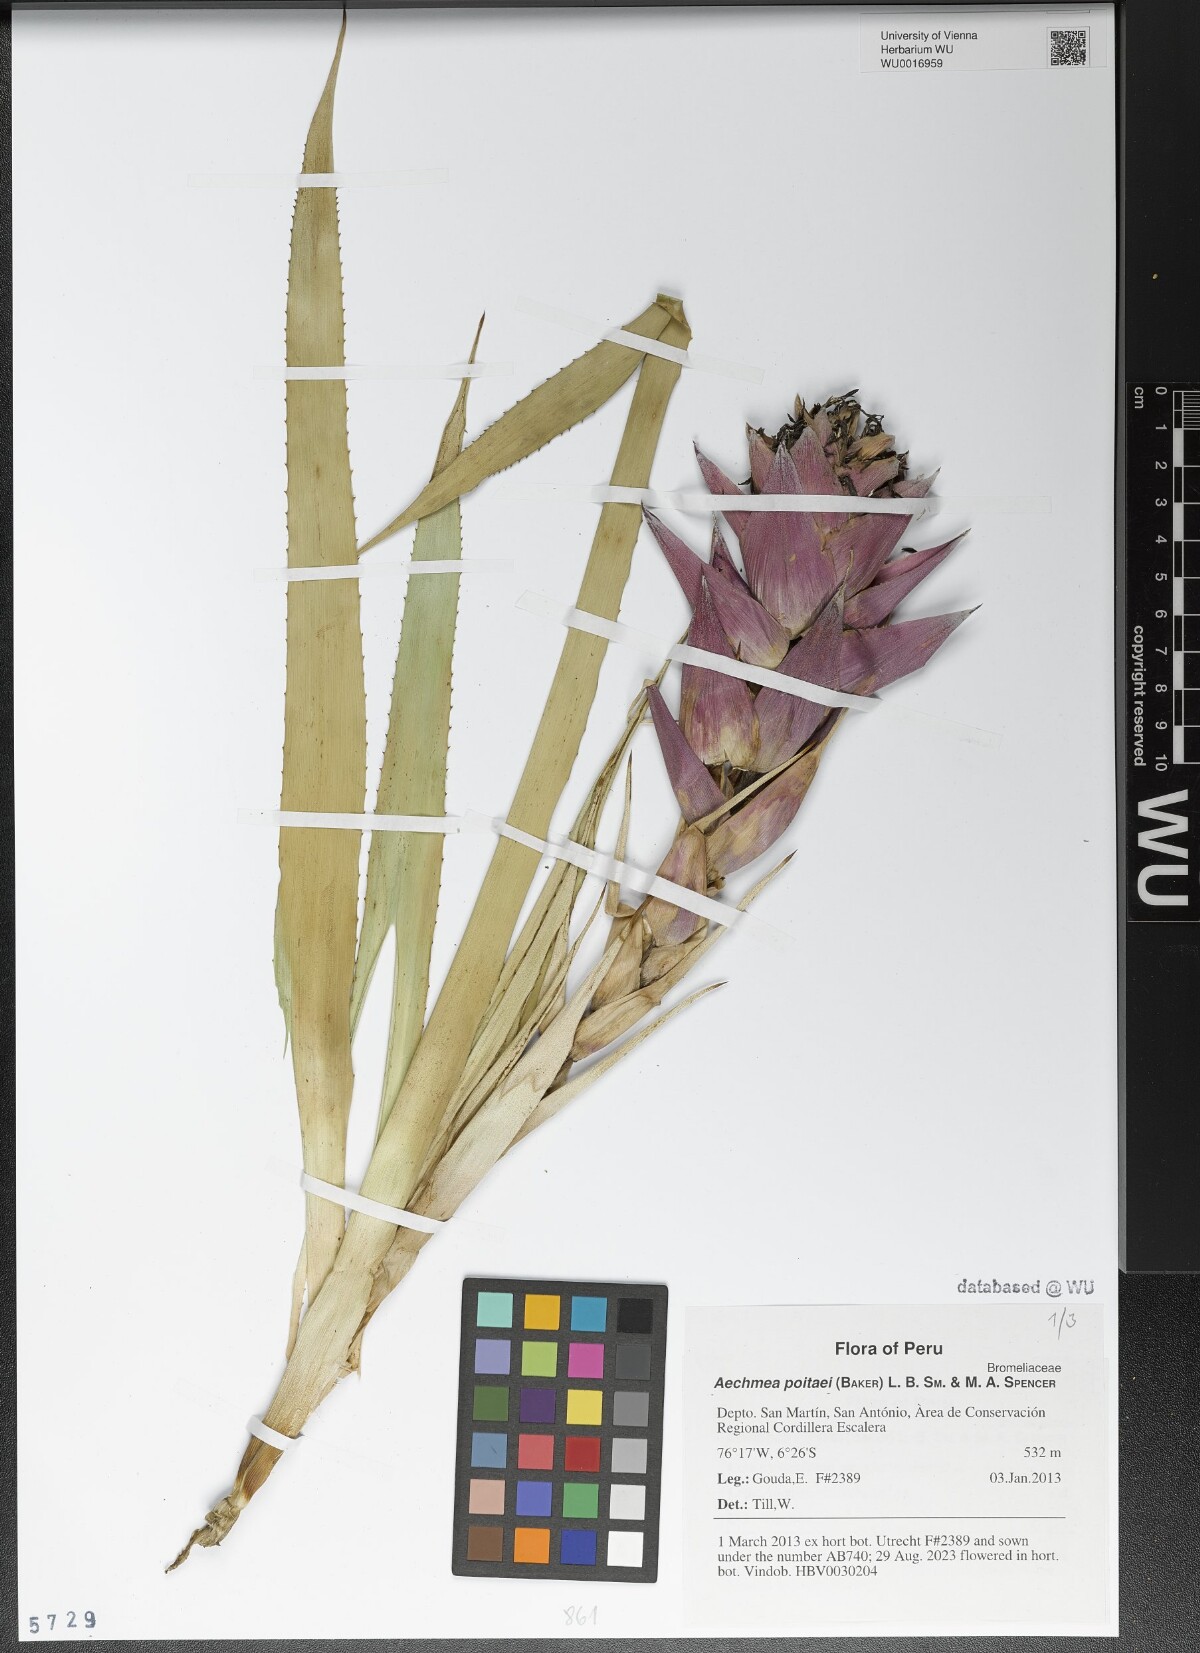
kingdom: Plantae
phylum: Tracheophyta
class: Liliopsida
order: Poales
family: Bromeliaceae
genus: Aechmea
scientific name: Aechmea poitaei
